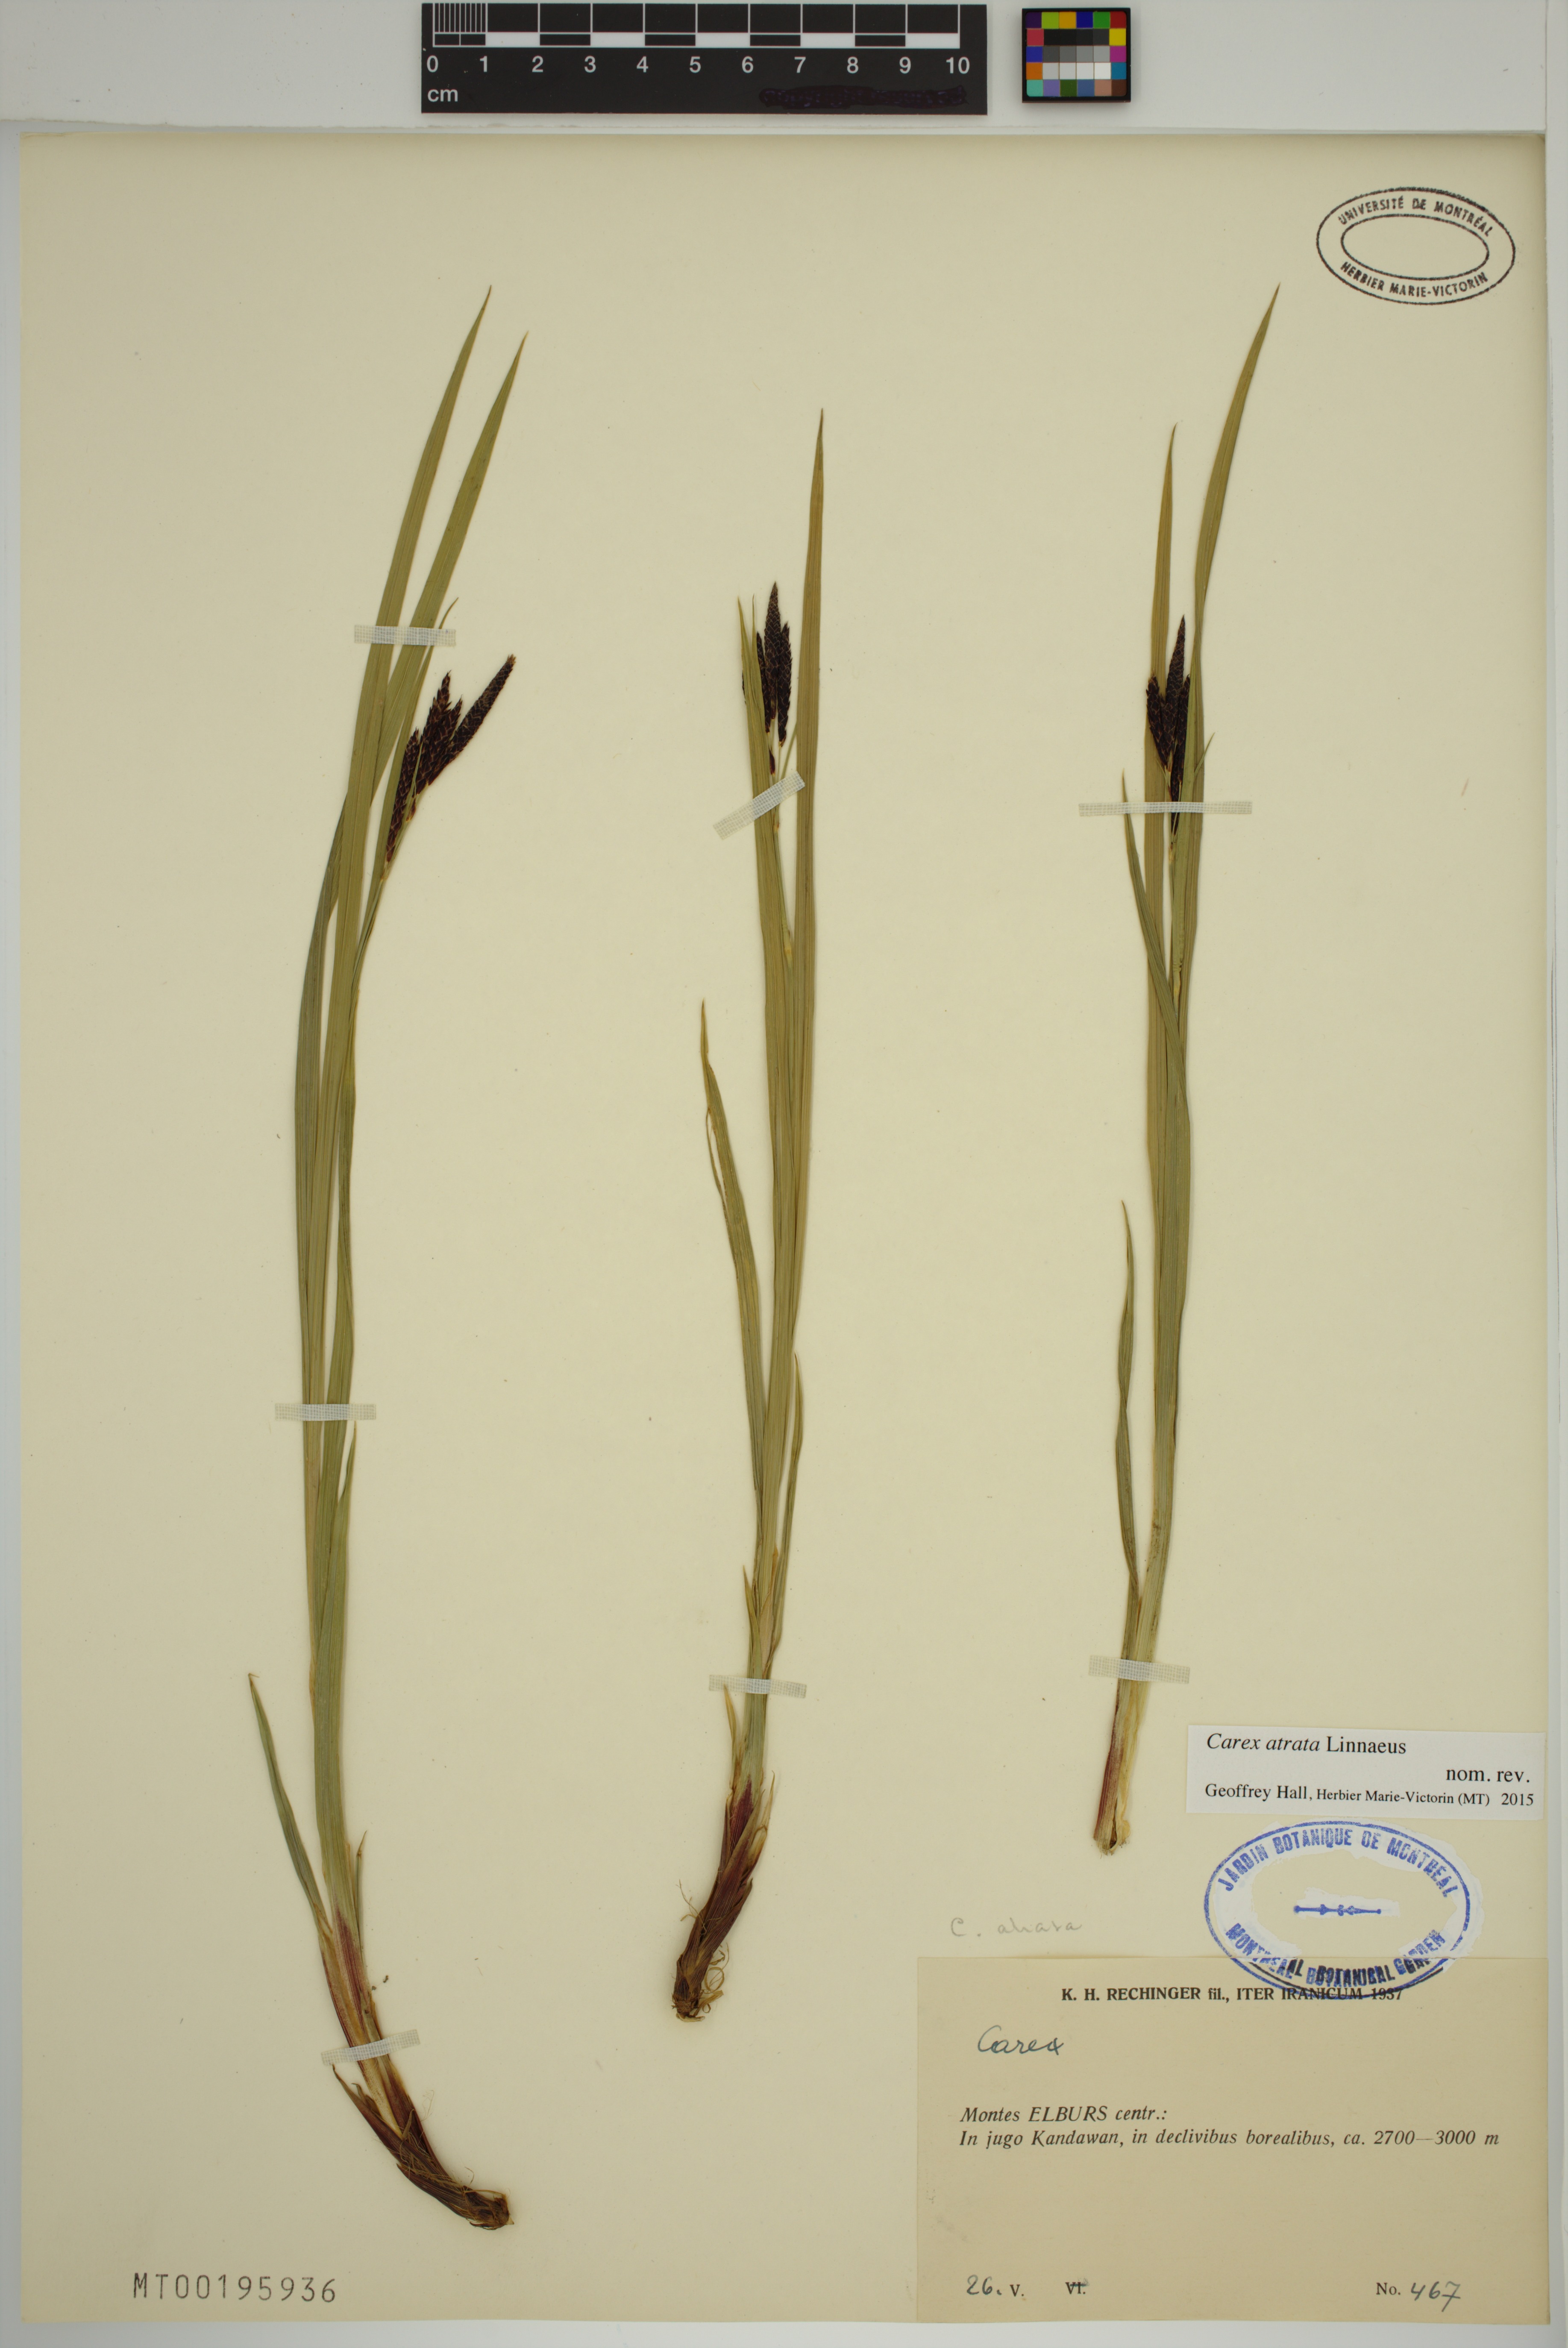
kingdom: Plantae
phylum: Tracheophyta
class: Liliopsida
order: Poales
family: Cyperaceae
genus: Carex
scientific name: Carex atrata
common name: Black alpine sedge
